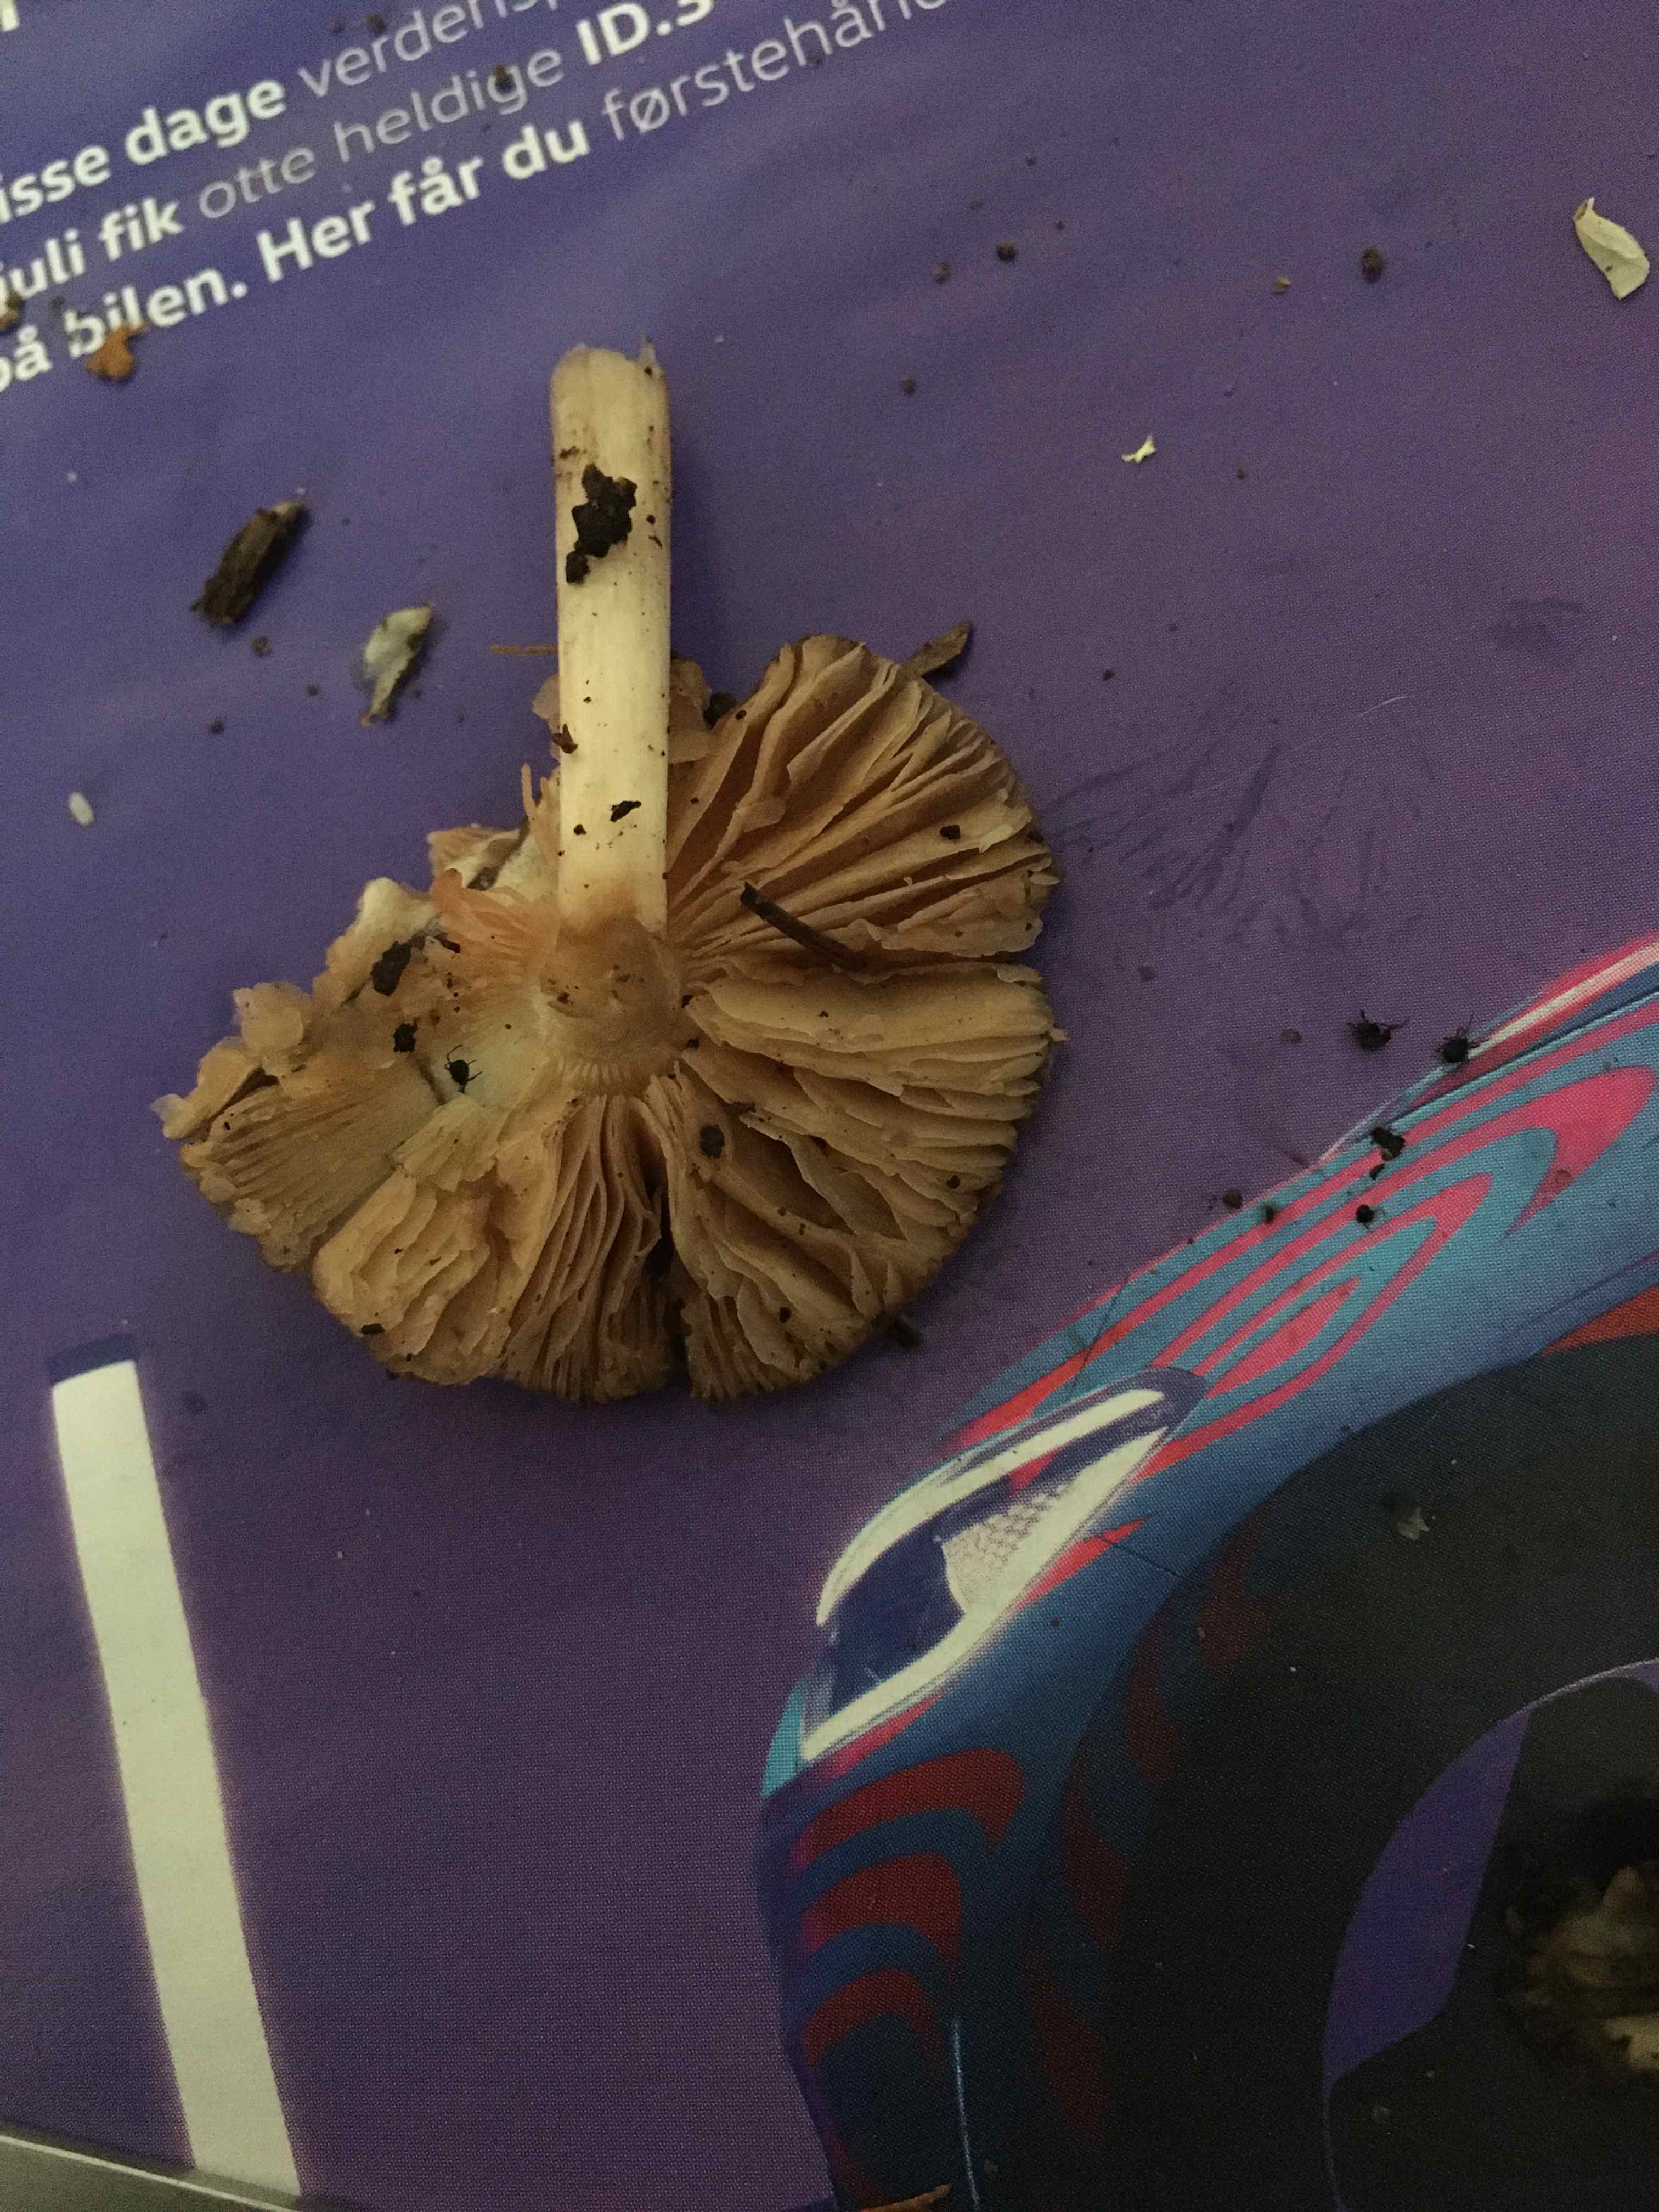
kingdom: Fungi
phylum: Basidiomycota
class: Agaricomycetes
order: Agaricales
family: Pluteaceae
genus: Pluteus
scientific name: Pluteus
